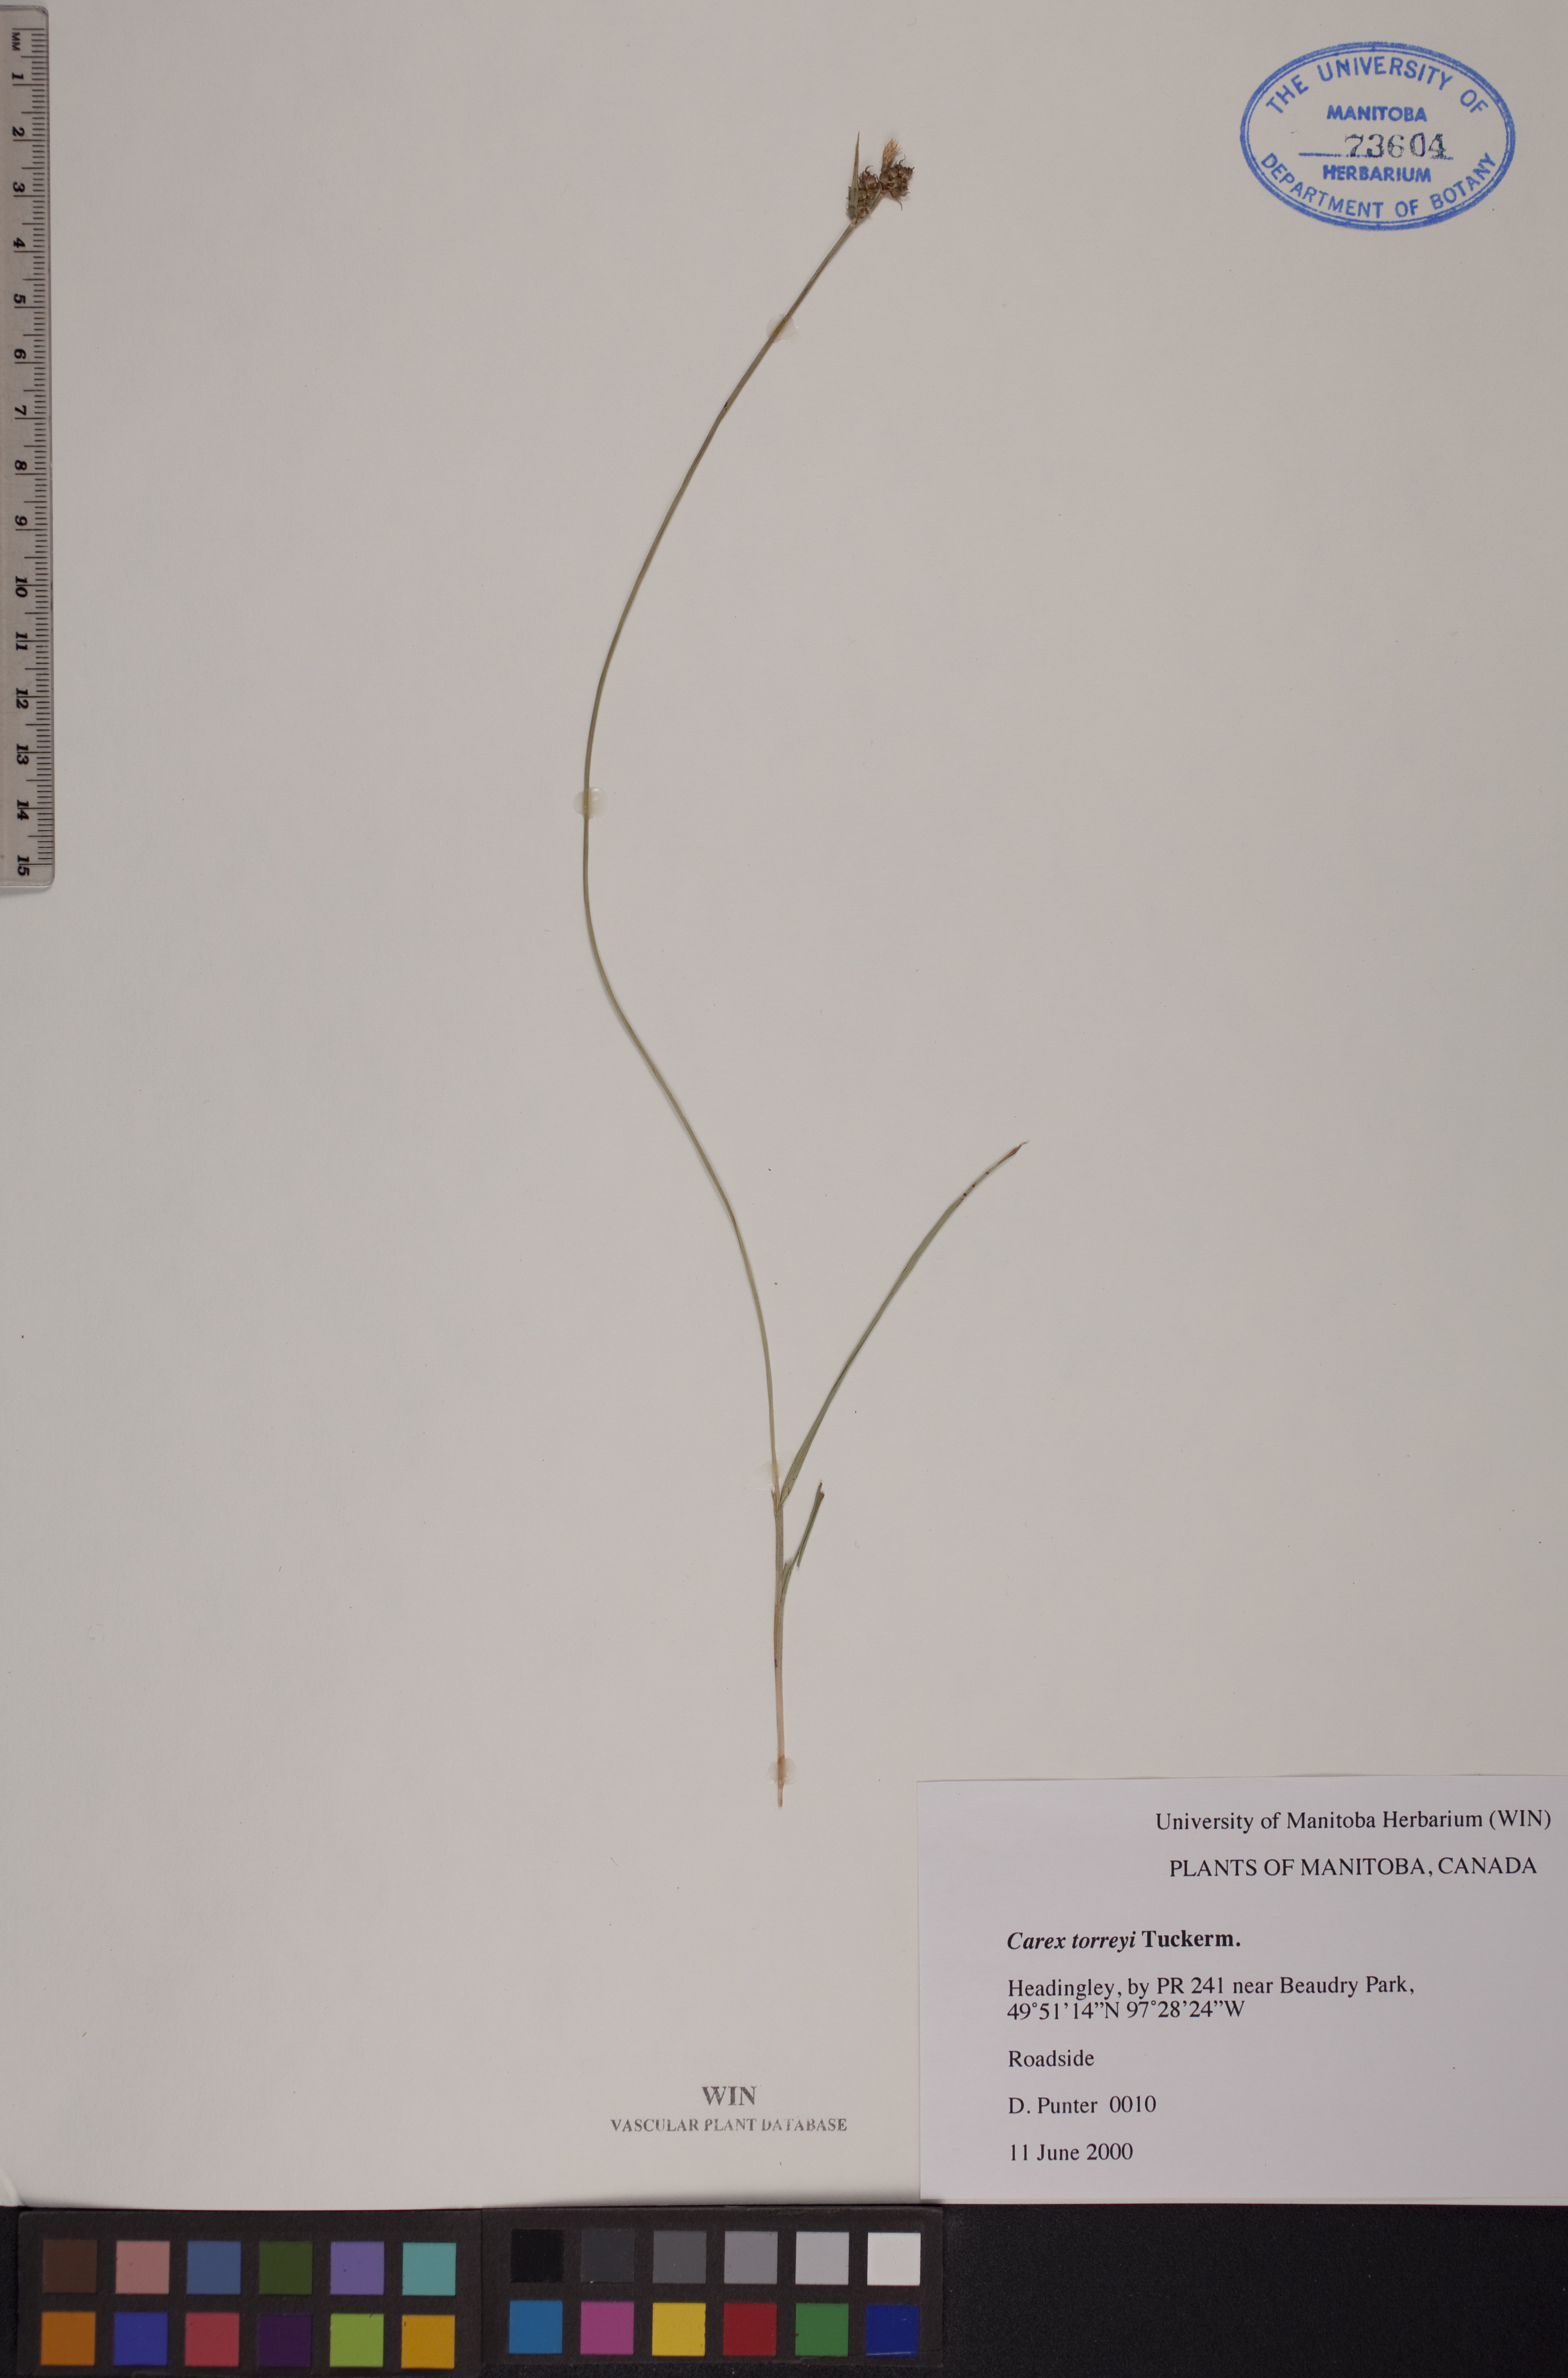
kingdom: Plantae
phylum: Tracheophyta
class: Liliopsida
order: Poales
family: Cyperaceae
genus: Carex
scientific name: Carex torreyi
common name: Torrey's sedge
